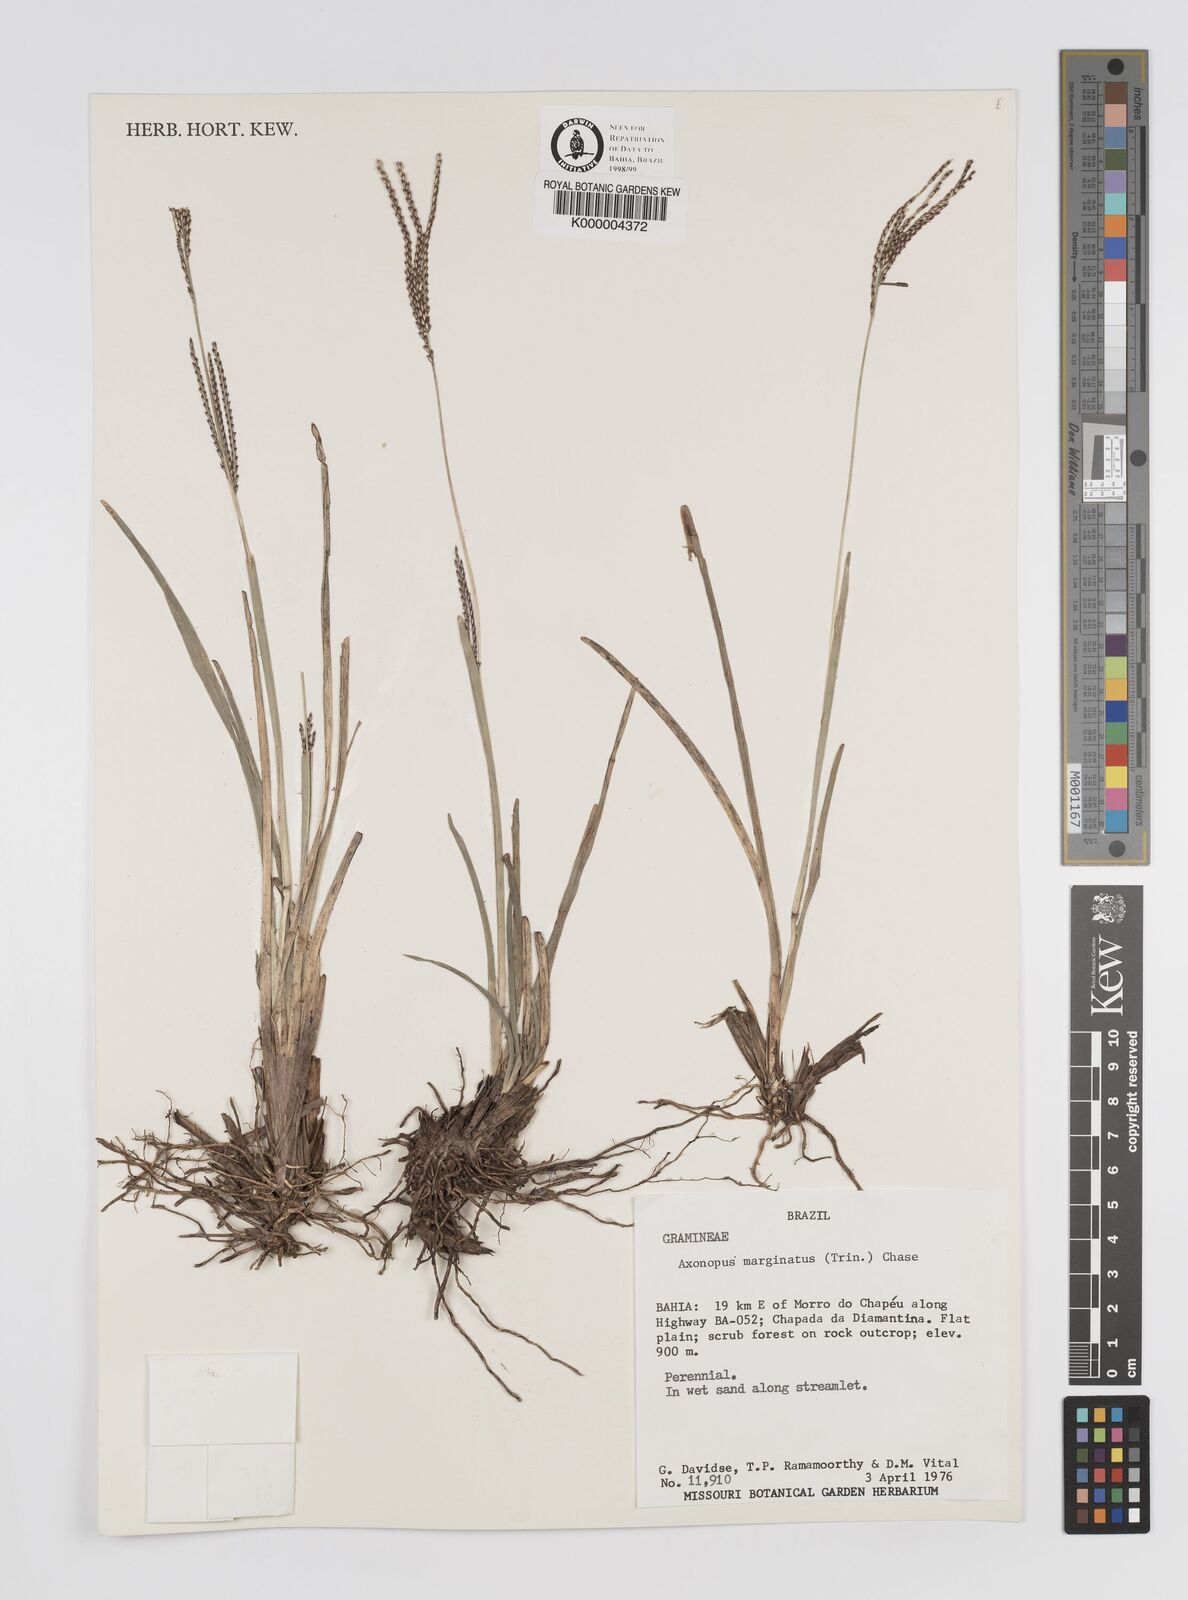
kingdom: Plantae
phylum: Tracheophyta
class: Liliopsida
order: Poales
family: Poaceae
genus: Axonopus
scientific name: Axonopus
